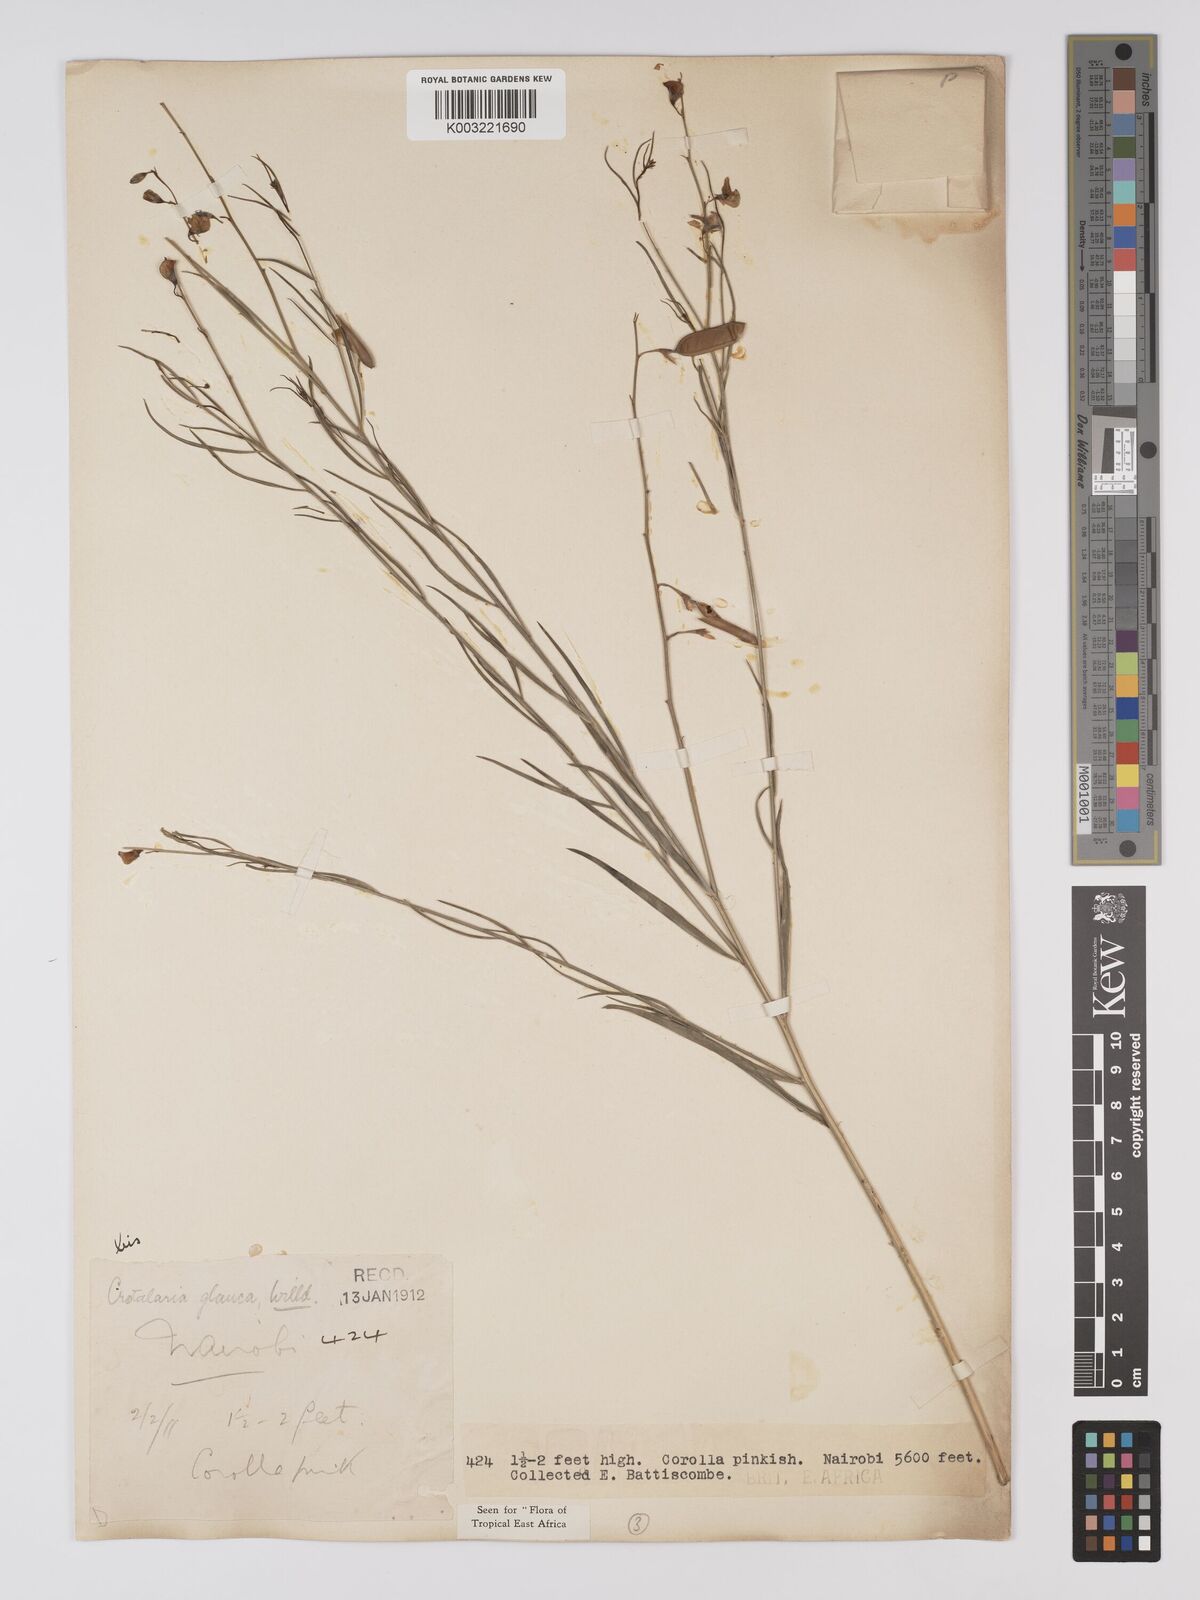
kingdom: Plantae
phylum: Tracheophyta
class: Magnoliopsida
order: Fabales
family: Fabaceae
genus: Crotalaria
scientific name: Crotalaria glauca
